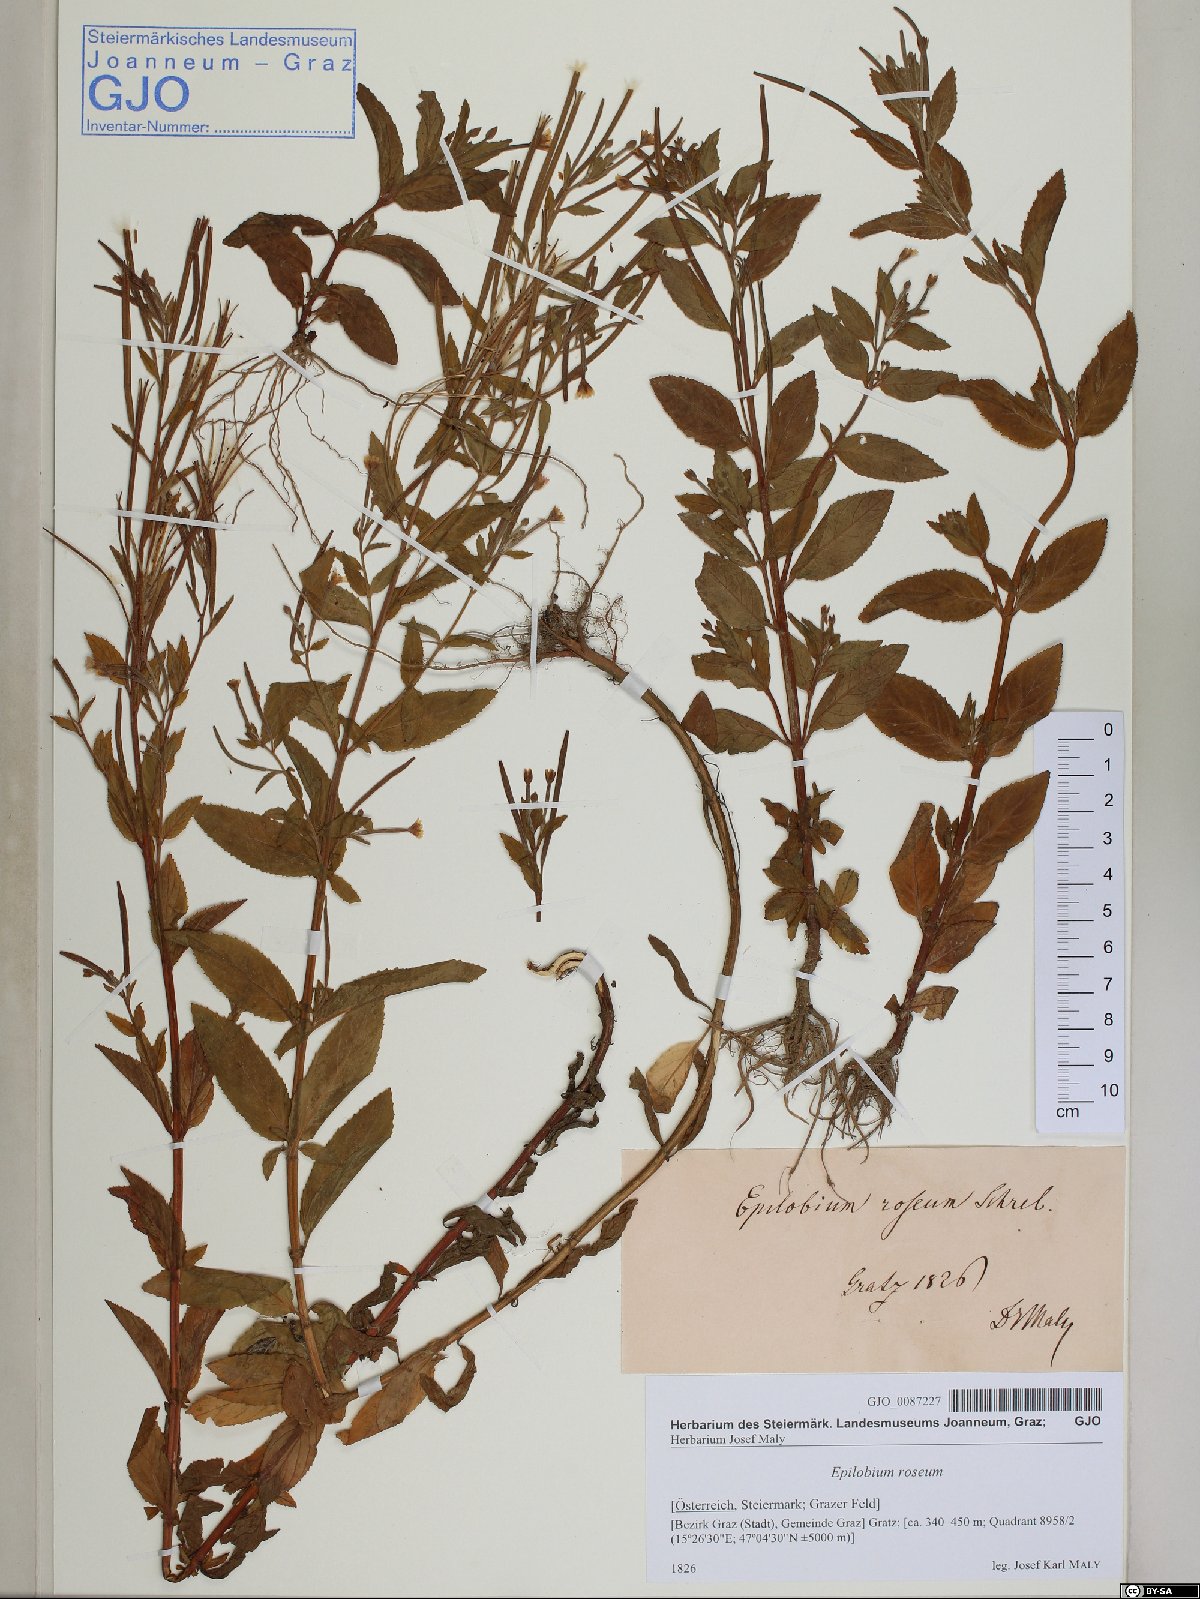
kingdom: Plantae
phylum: Tracheophyta
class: Magnoliopsida
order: Myrtales
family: Onagraceae
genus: Epilobium
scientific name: Epilobium roseum
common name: Pale willowherb
